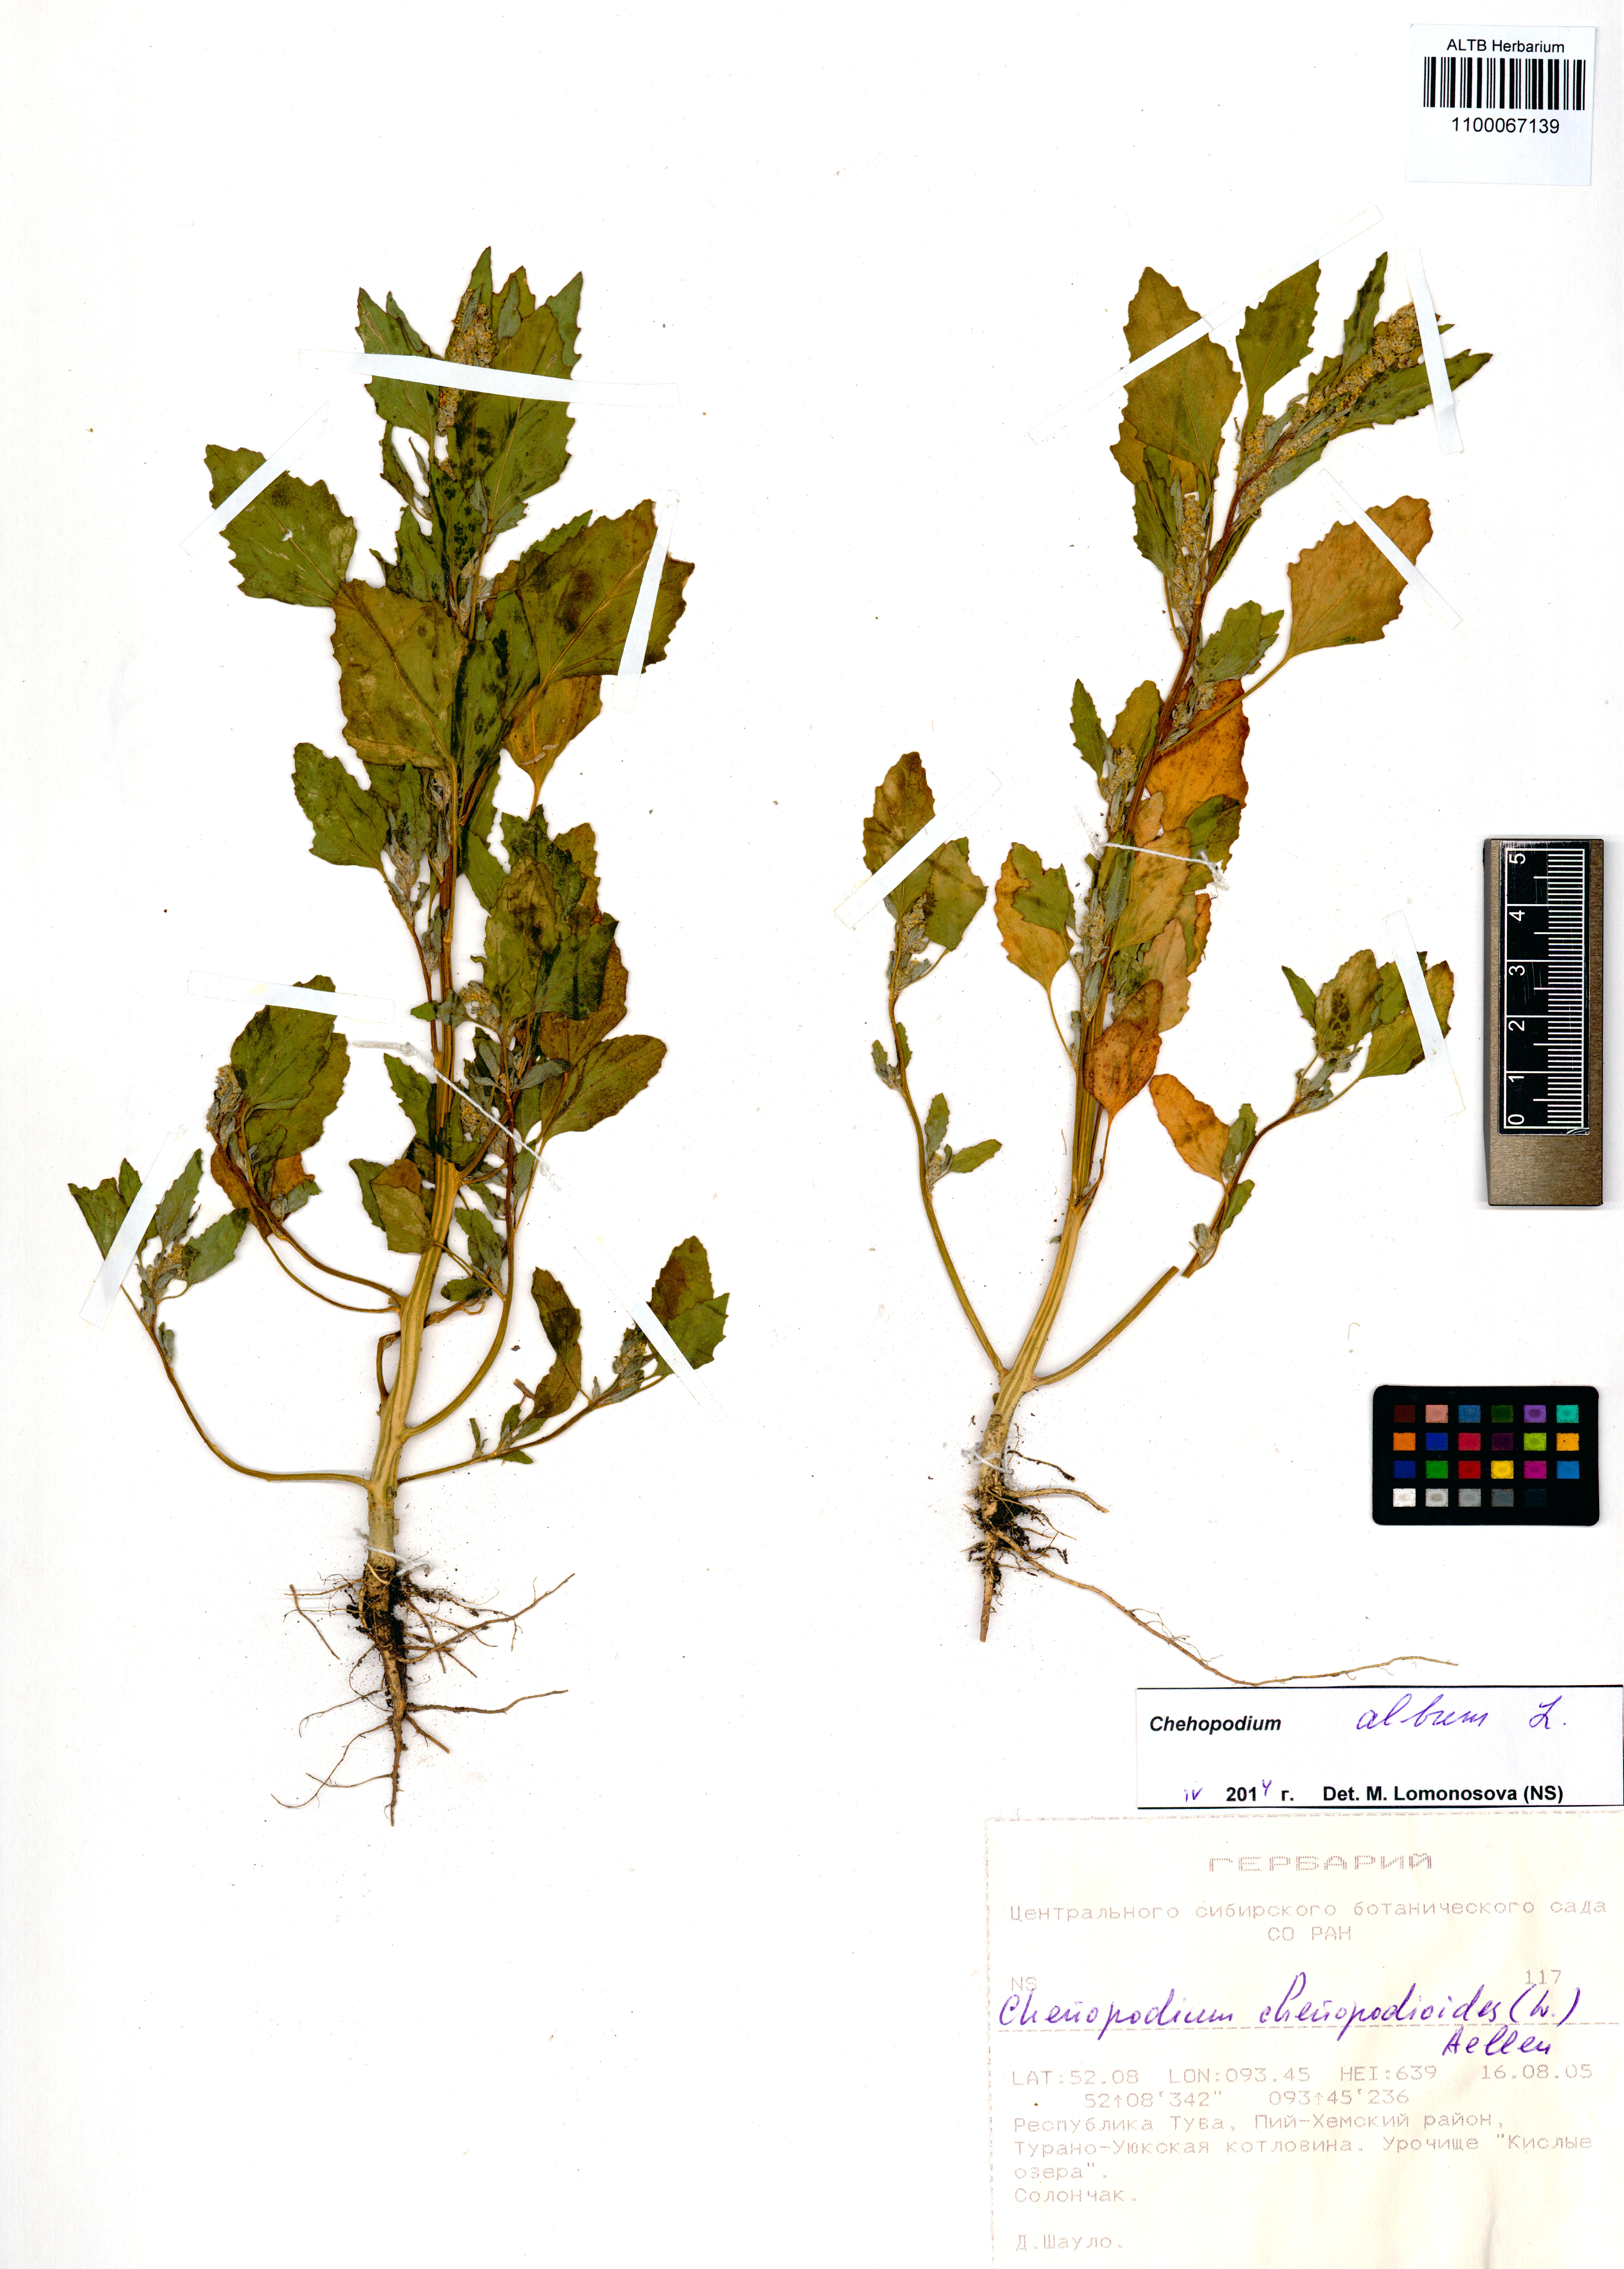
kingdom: Plantae
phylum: Tracheophyta
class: Magnoliopsida
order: Caryophyllales
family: Amaranthaceae
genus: Chenopodium
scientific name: Chenopodium album
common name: Fat-hen
